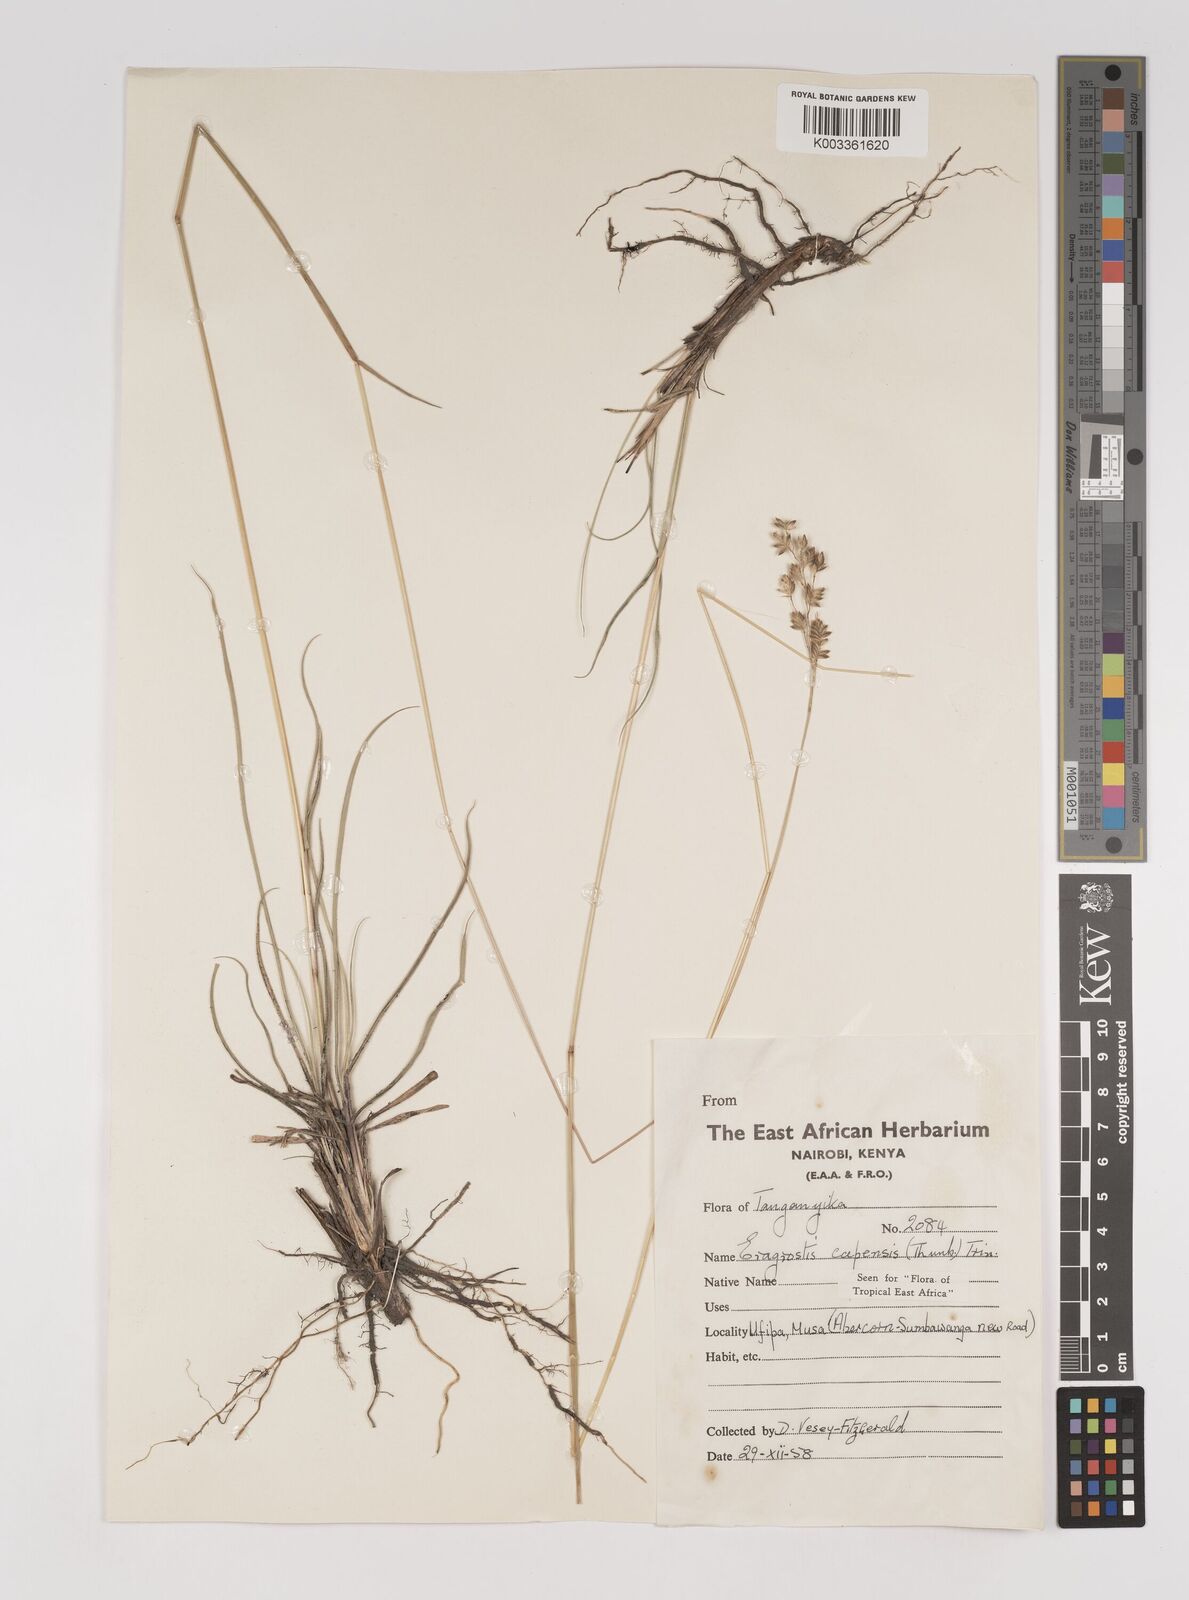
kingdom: Plantae
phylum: Tracheophyta
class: Liliopsida
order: Poales
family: Poaceae
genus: Eragrostis
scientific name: Eragrostis capensis
